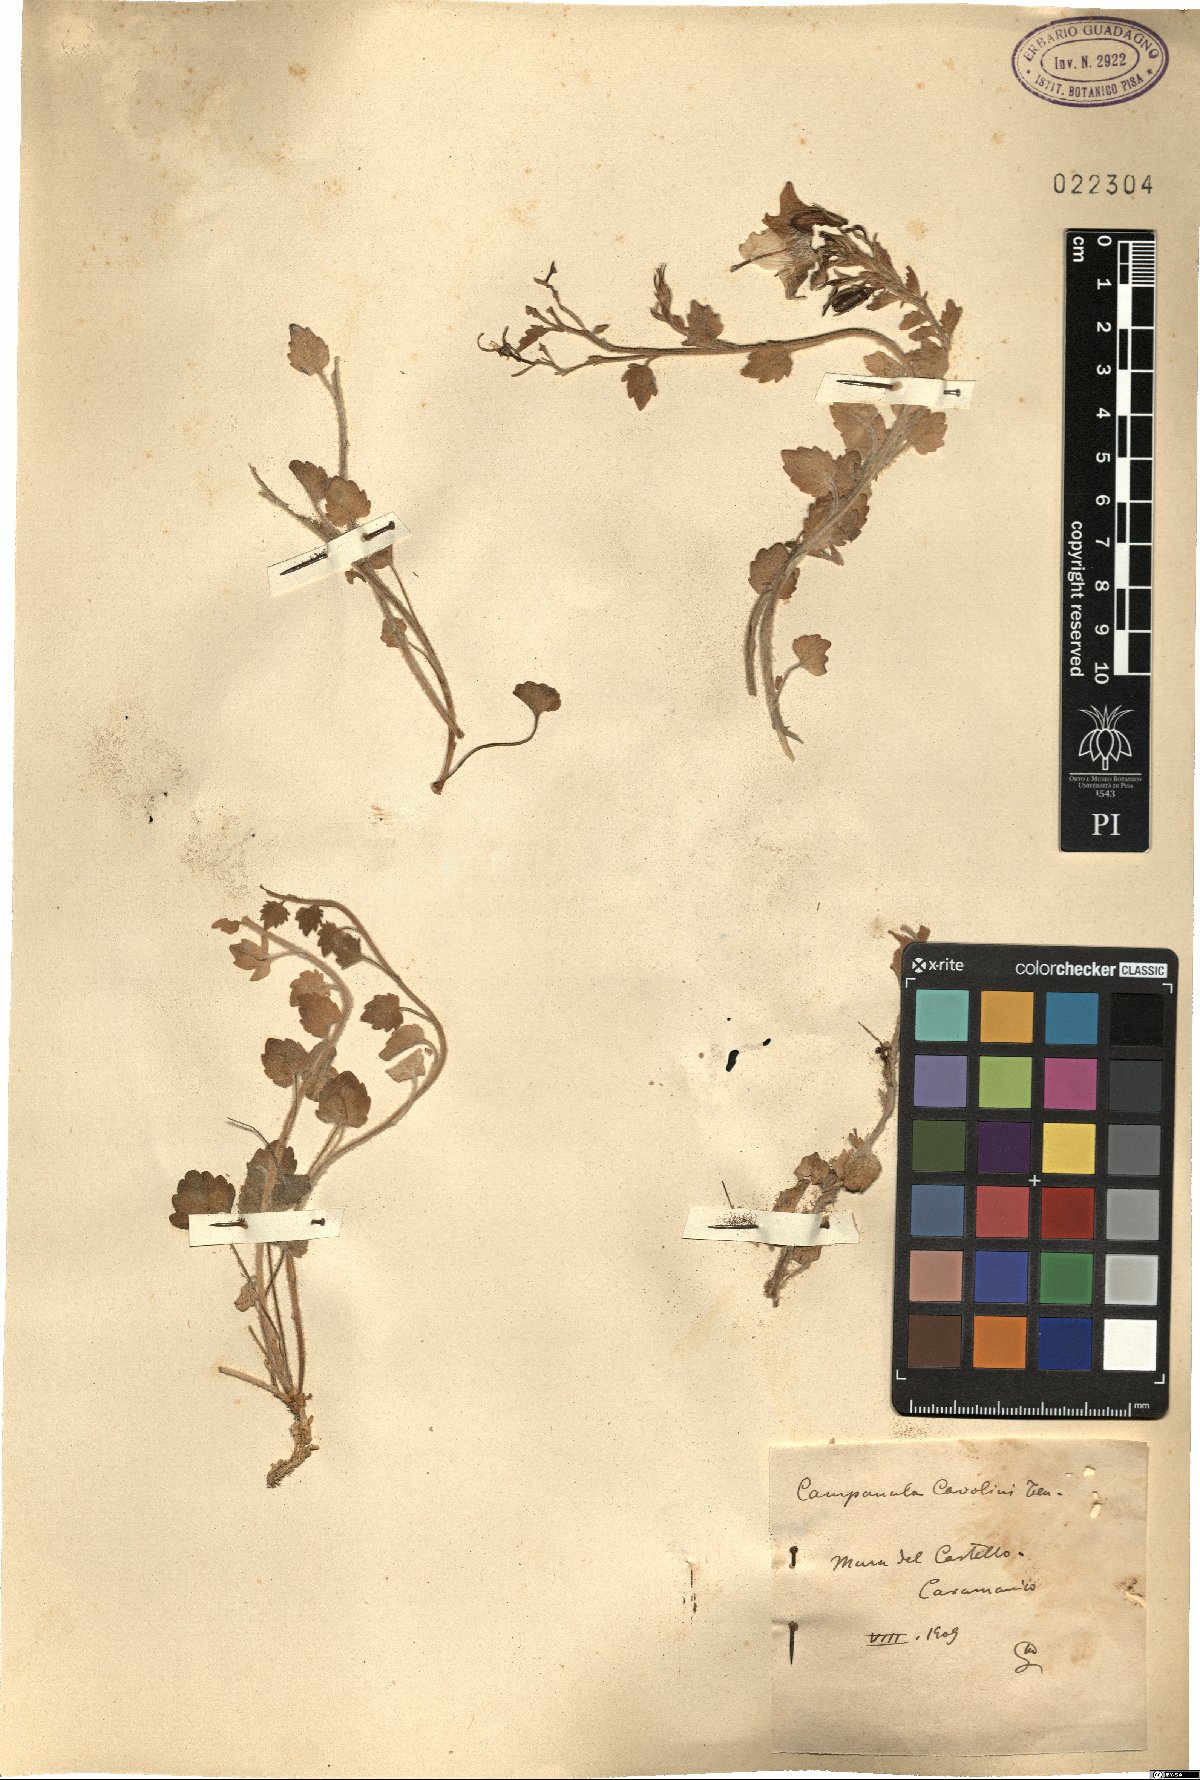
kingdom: Plantae
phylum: Tracheophyta
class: Magnoliopsida
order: Asterales
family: Campanulaceae
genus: Campanula
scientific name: Campanula fragilis
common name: Italian bellflower
